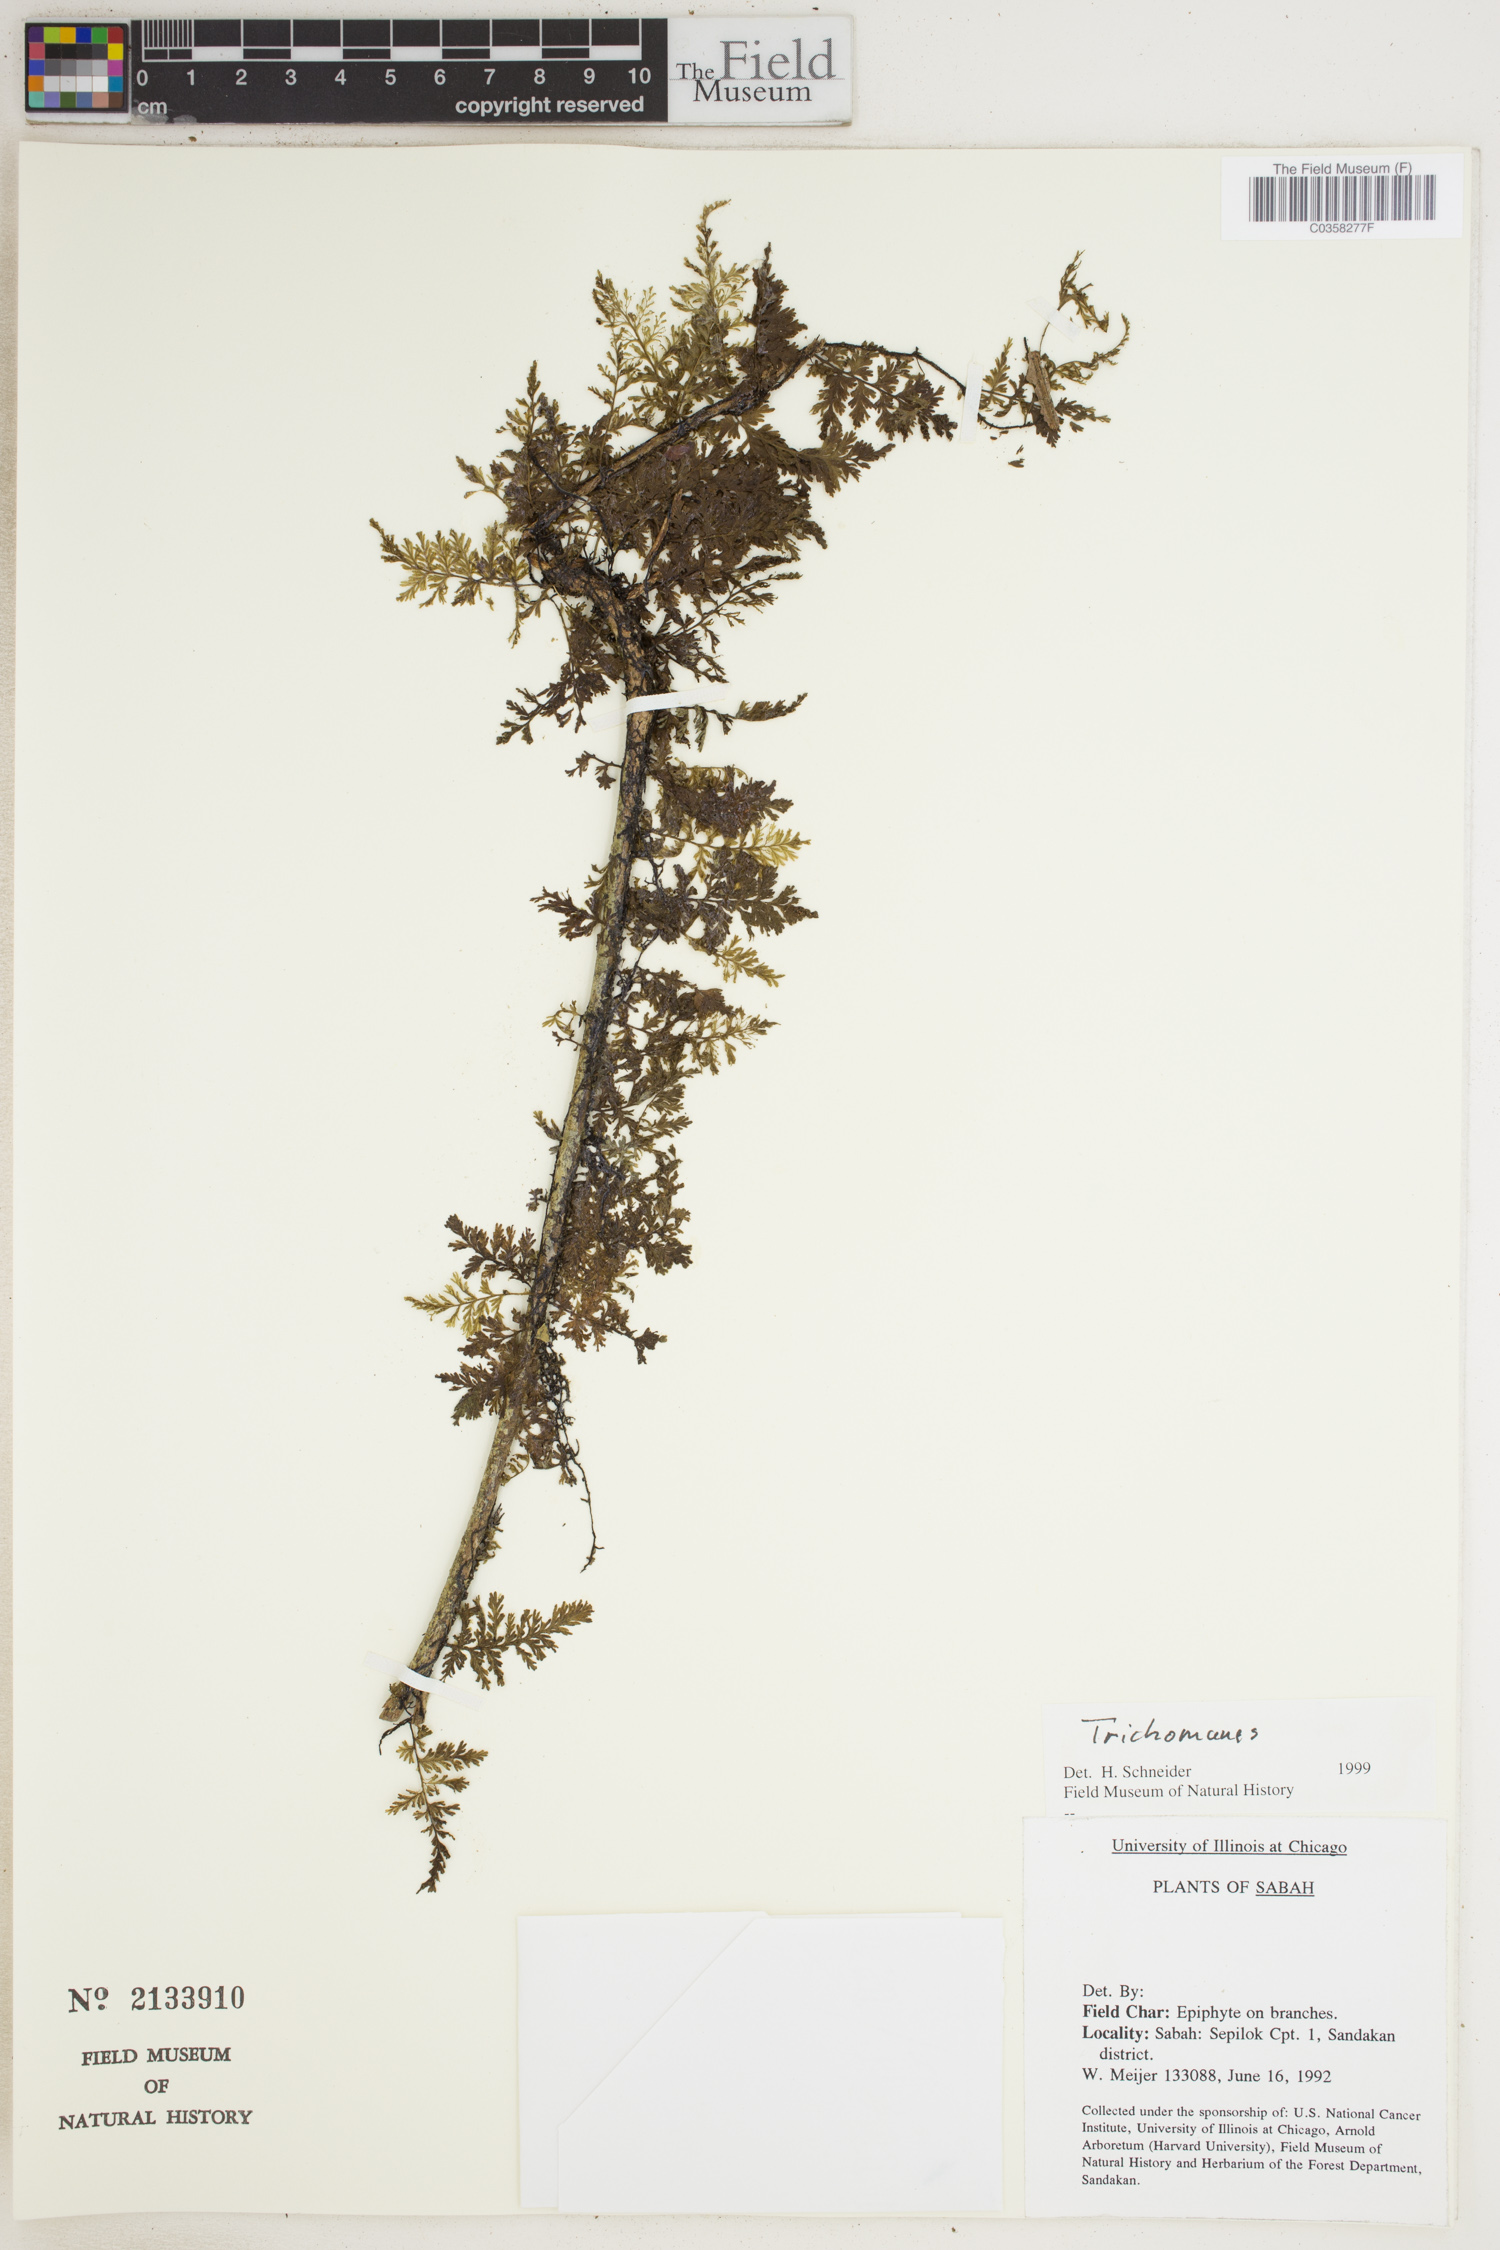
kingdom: Plantae
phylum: Tracheophyta
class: Polypodiopsida
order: Hymenophyllales
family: Hymenophyllaceae
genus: Trichomanes
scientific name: Trichomanes
